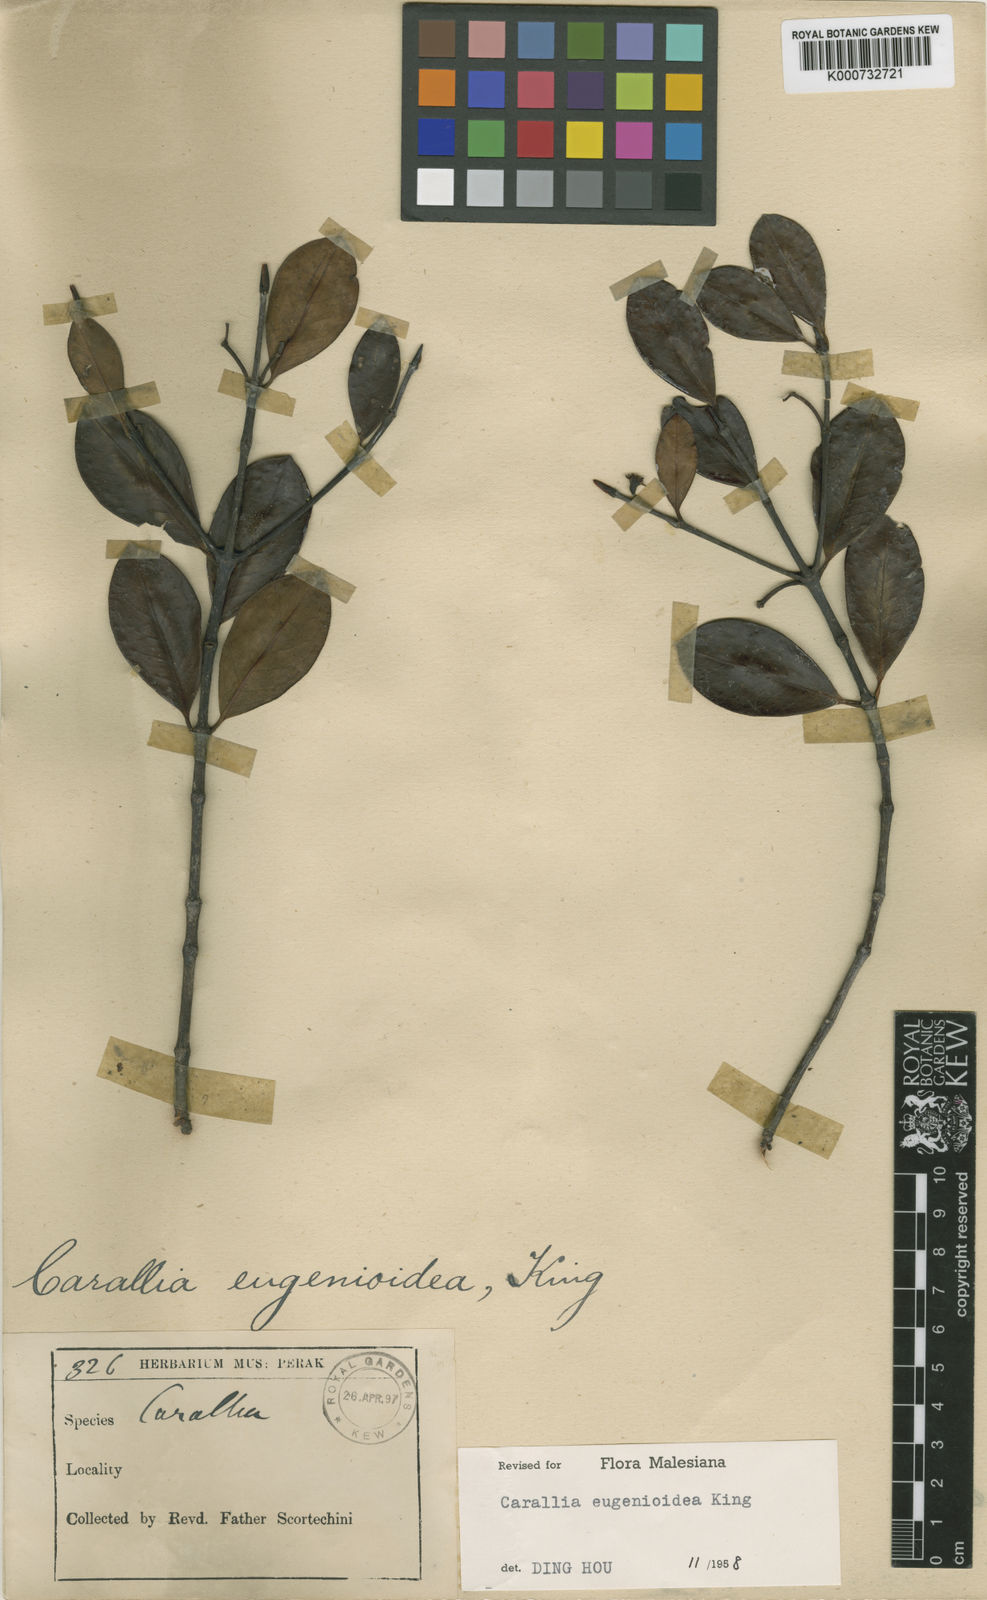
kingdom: Plantae
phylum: Tracheophyta
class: Magnoliopsida
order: Malpighiales
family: Rhizophoraceae
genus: Carallia
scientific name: Carallia eugenoidea
